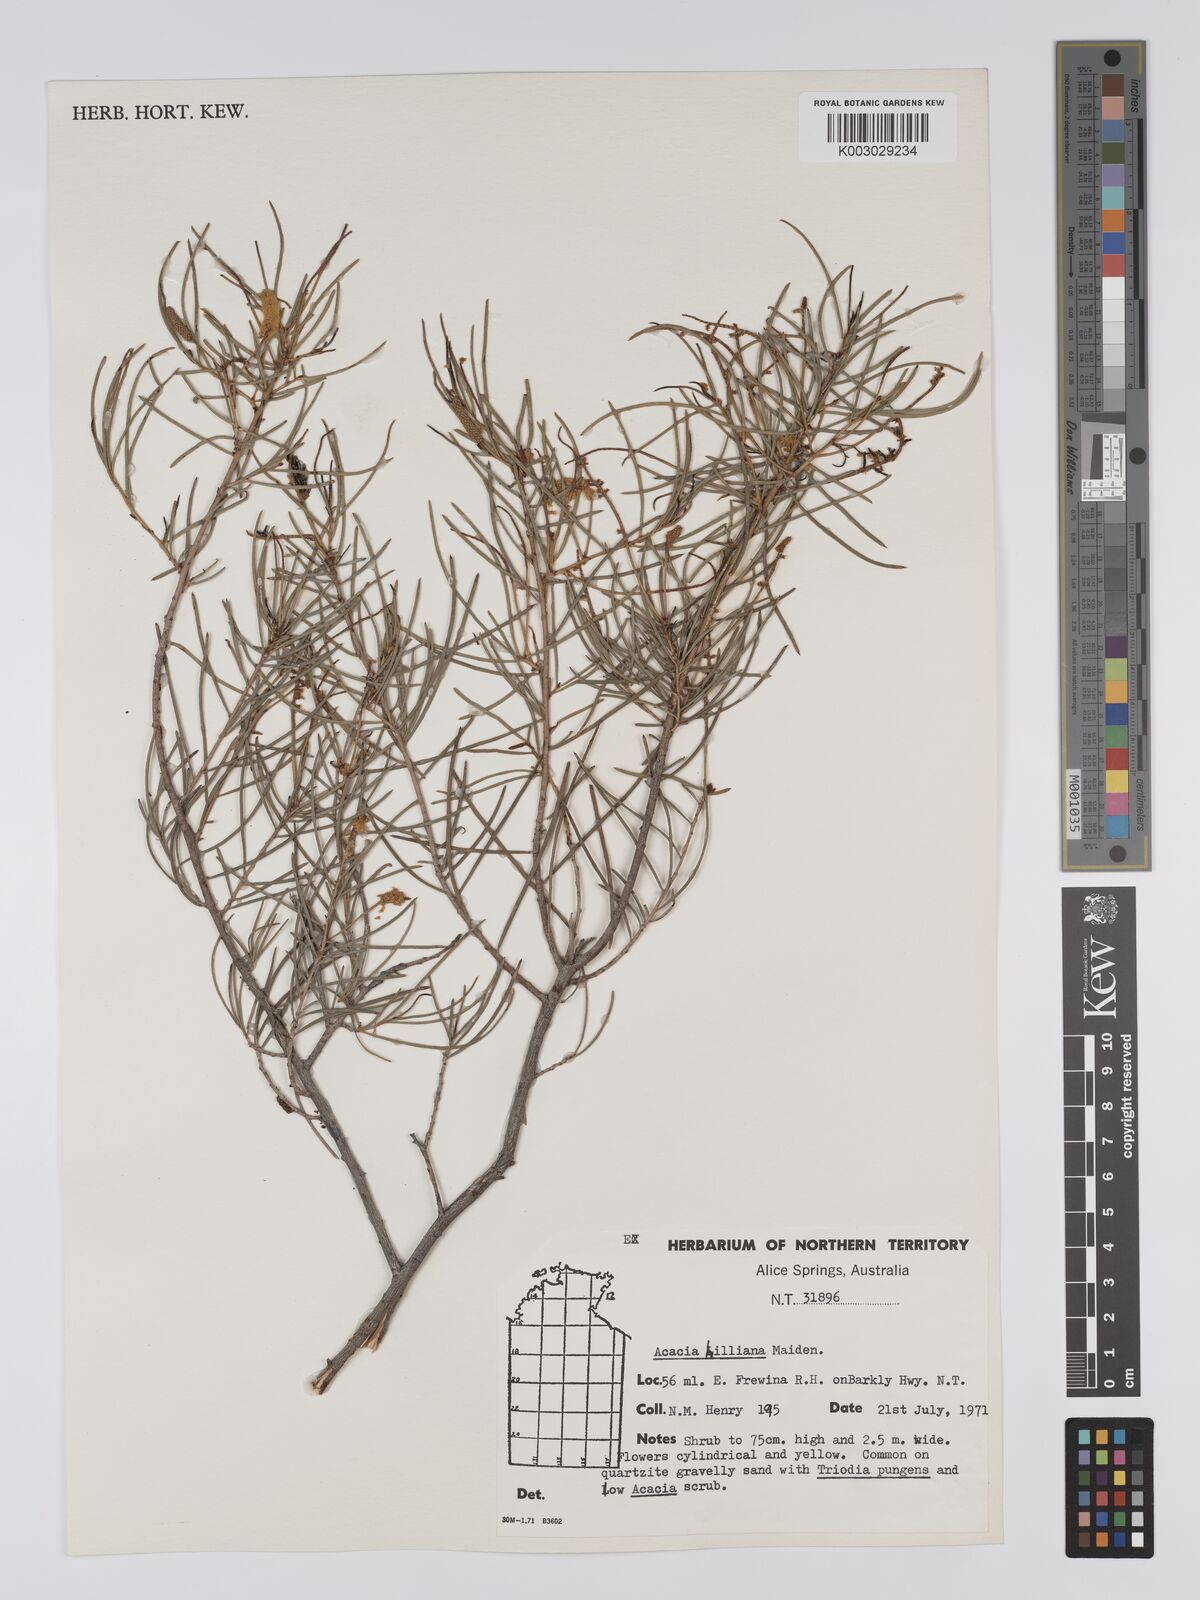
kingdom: Plantae
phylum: Tracheophyta
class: Magnoliopsida
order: Fabales
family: Fabaceae
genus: Acacia
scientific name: Acacia hilliana
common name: Hill's tabletop wattle
